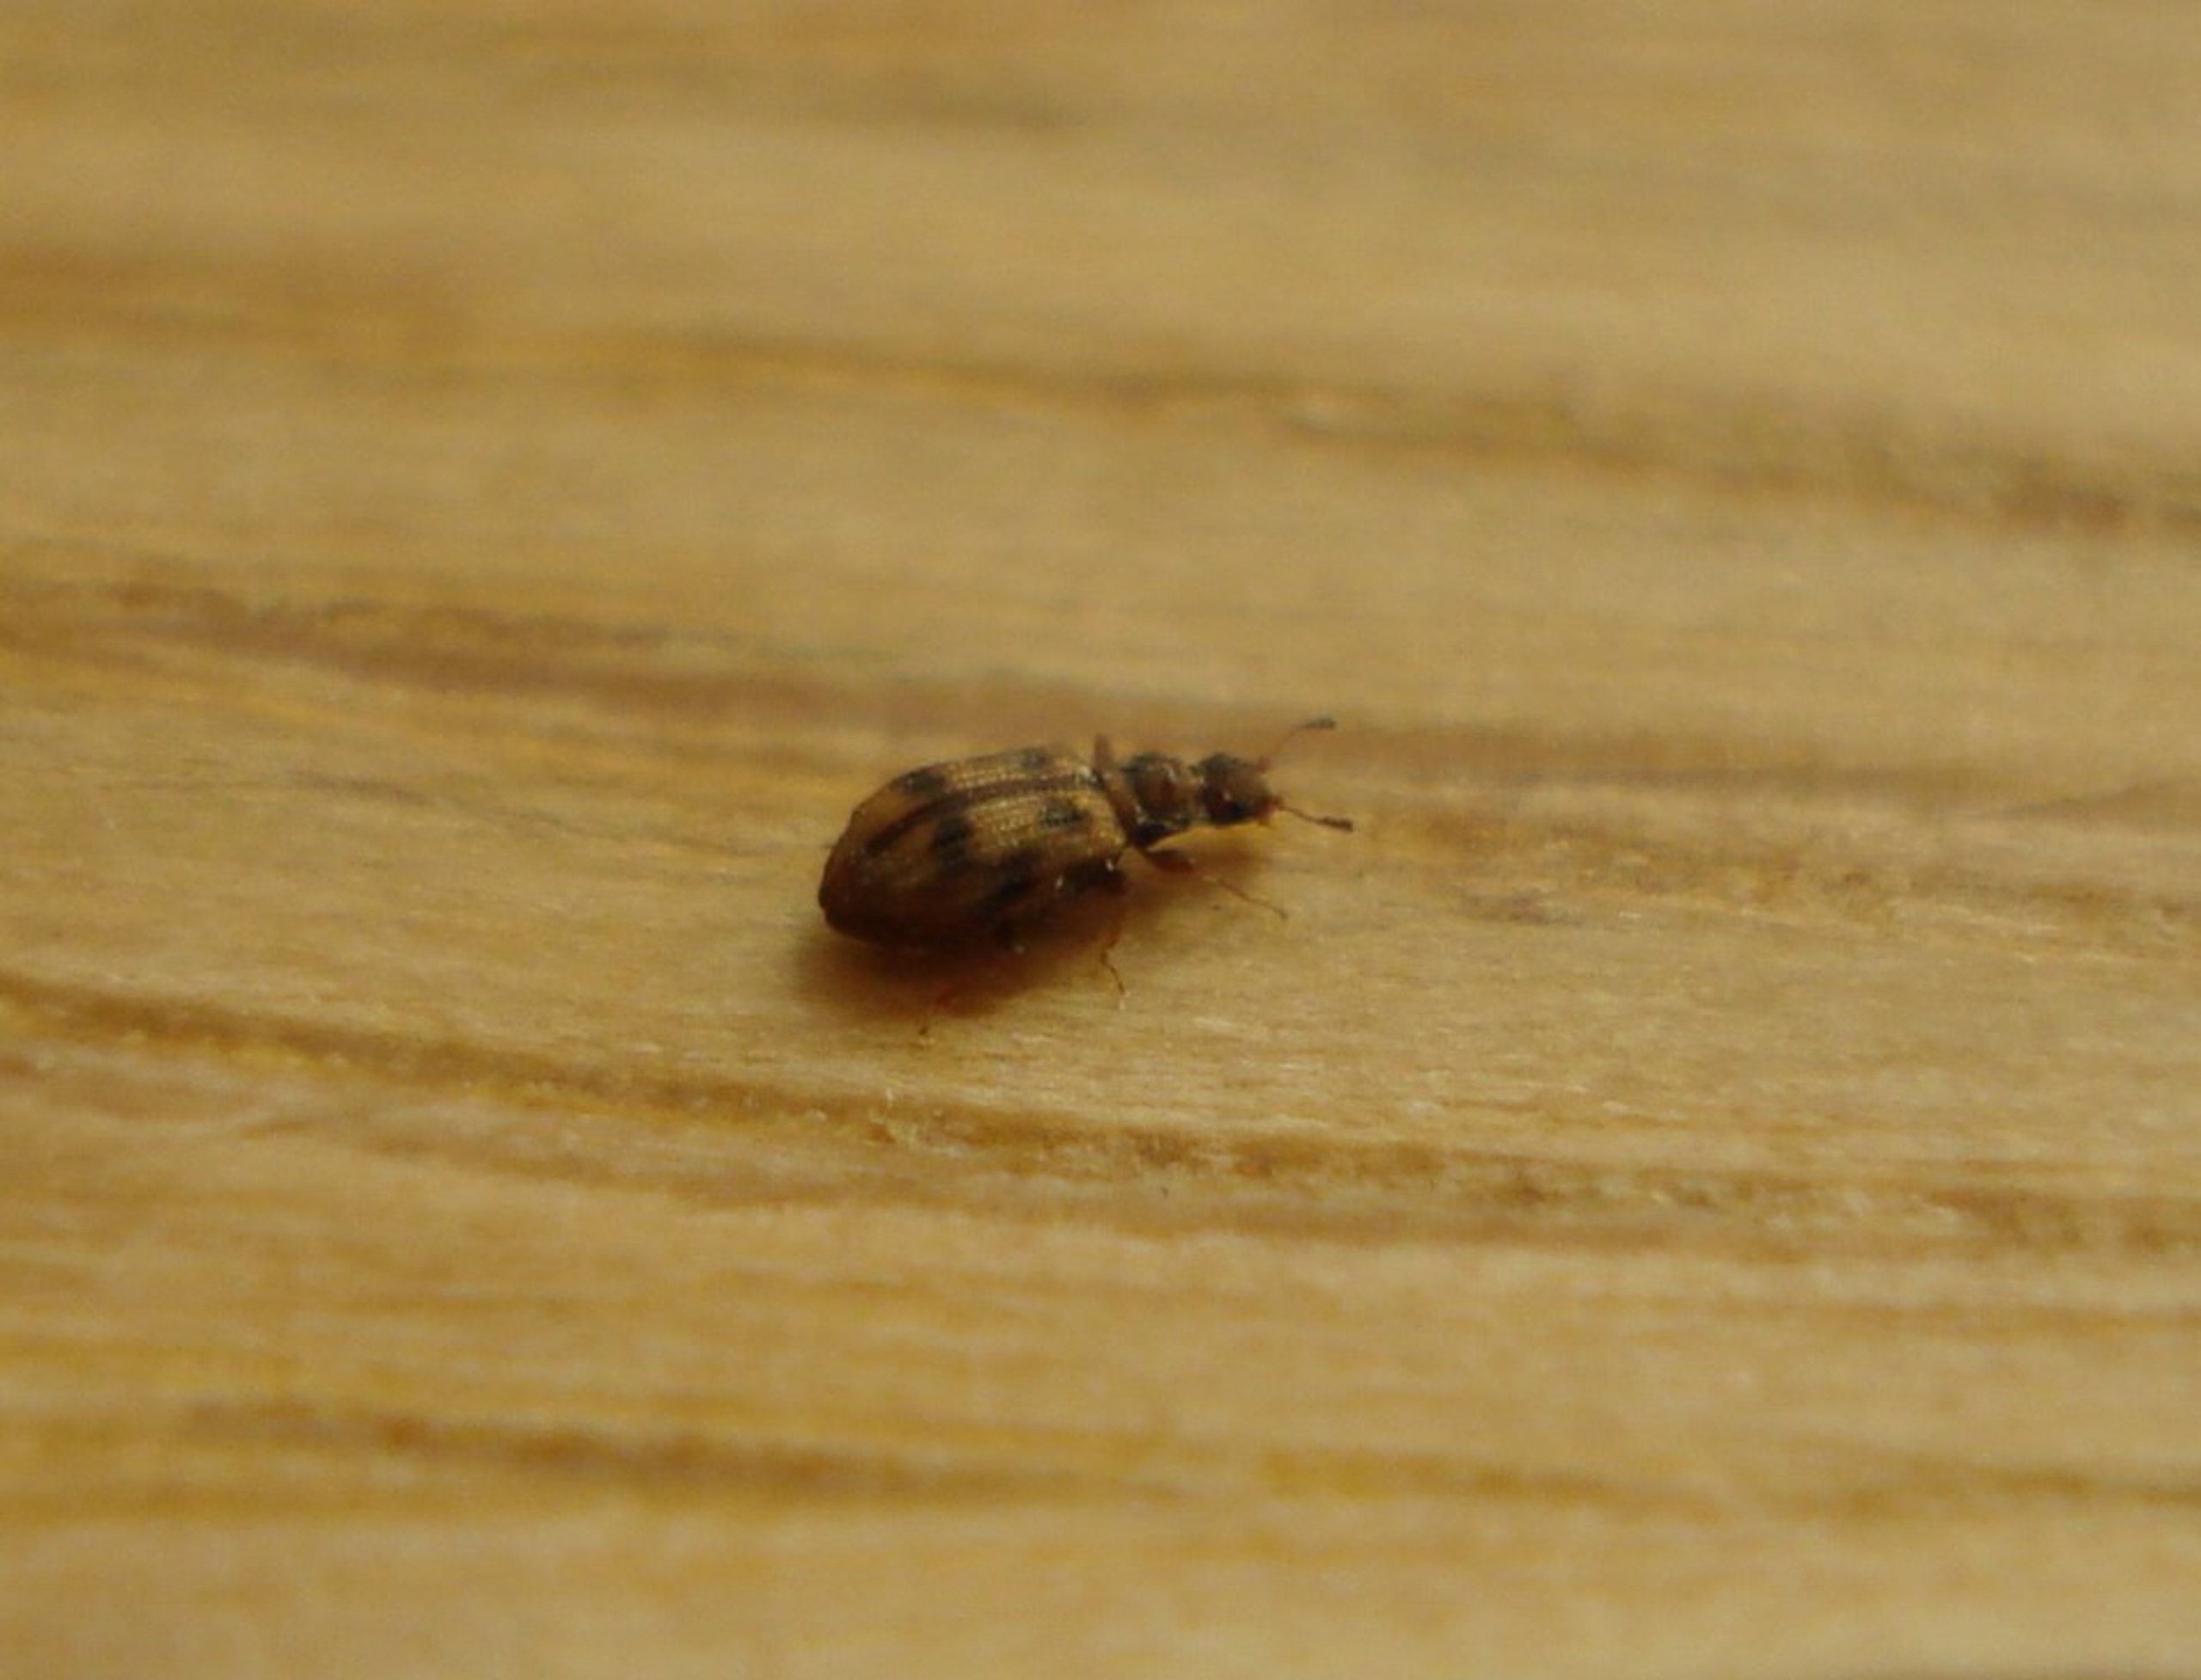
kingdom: Animalia
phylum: Arthropoda
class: Insecta
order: Coleoptera
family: Latridiidae
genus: Cartodere
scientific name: Cartodere bifasciata
